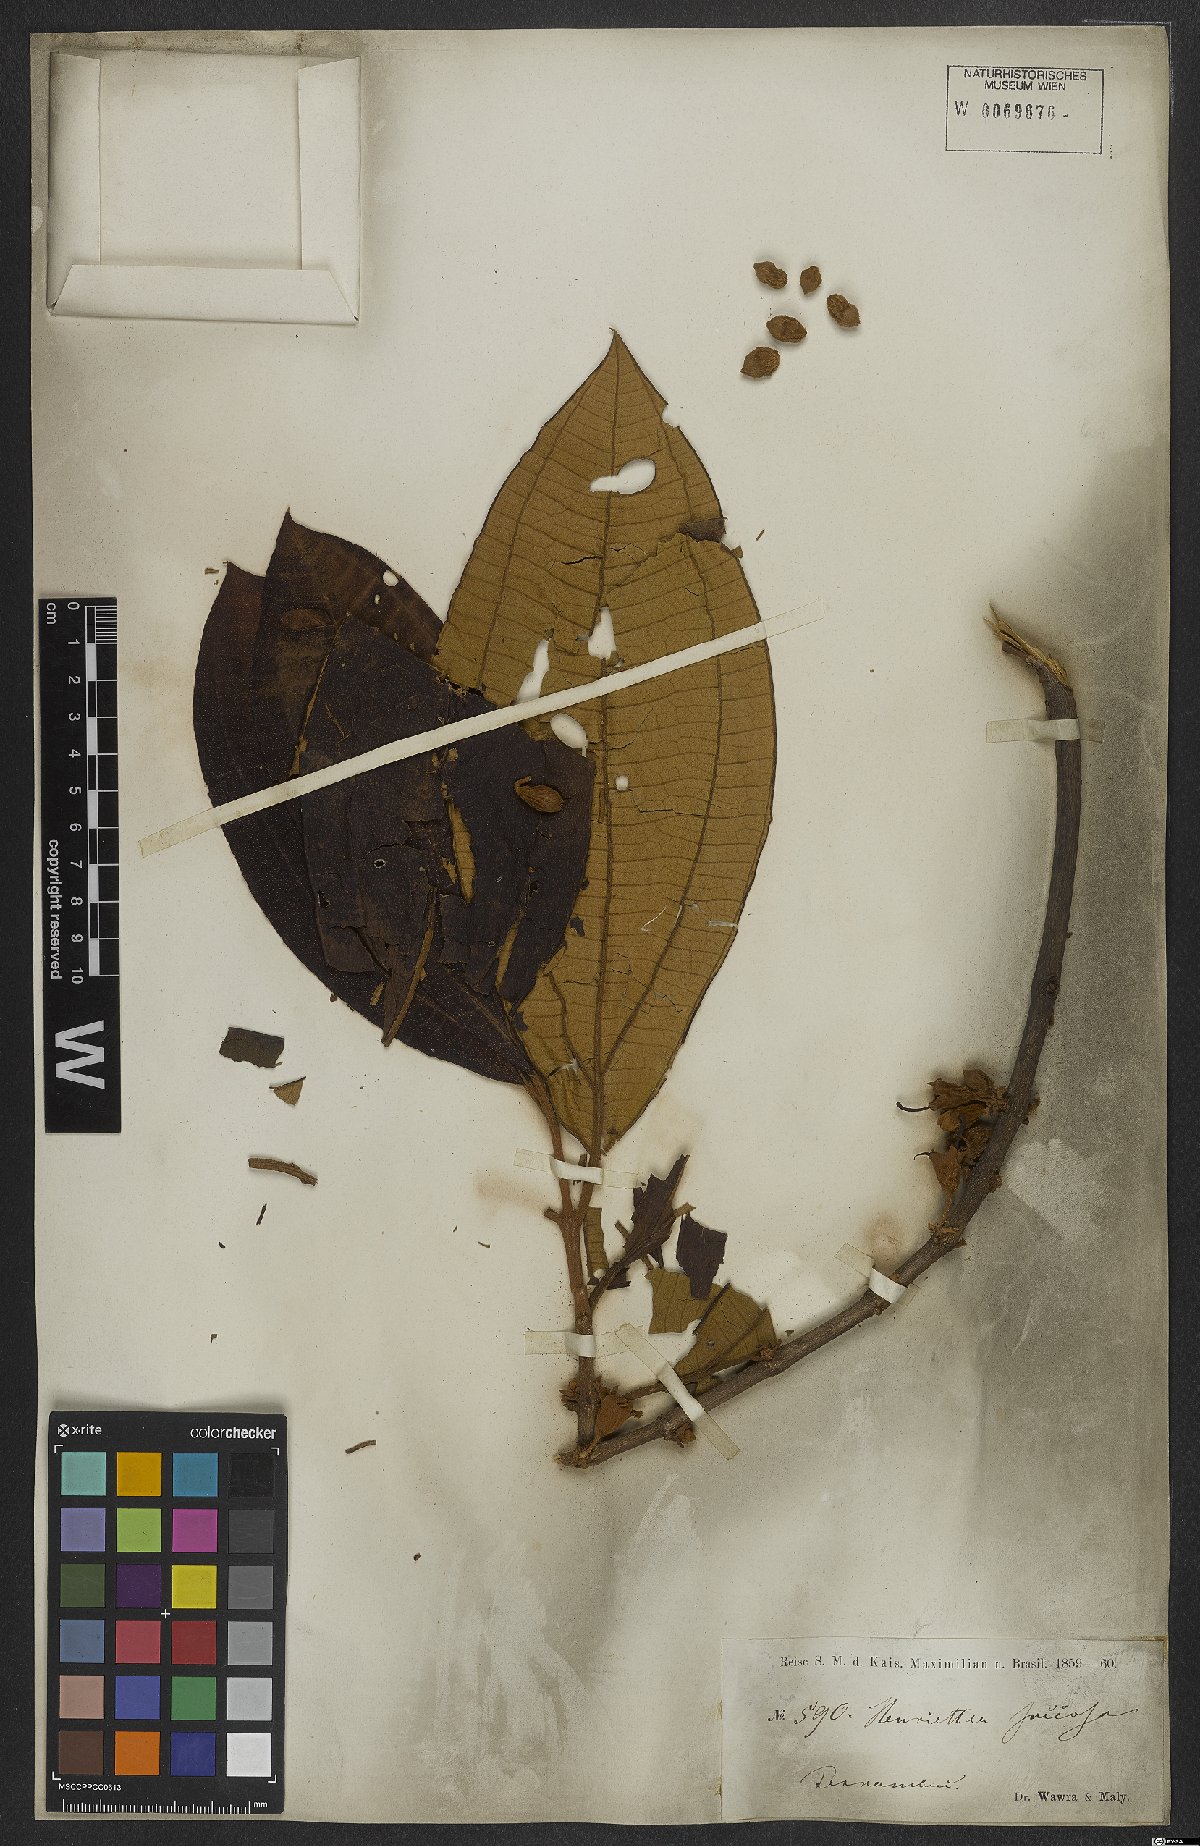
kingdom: Plantae
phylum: Tracheophyta
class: Magnoliopsida
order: Myrtales
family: Melastomataceae
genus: Henriettea
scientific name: Henriettea succosa
